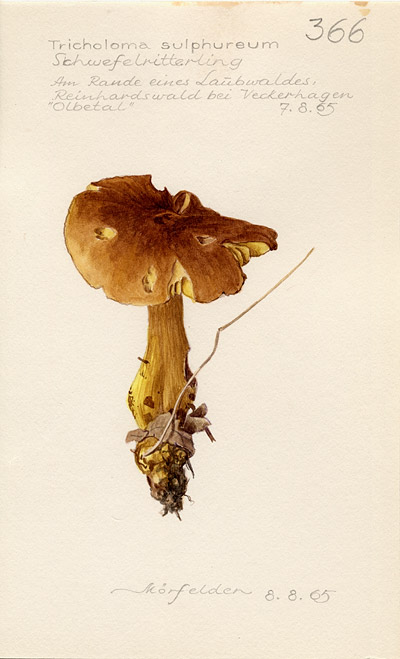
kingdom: Fungi
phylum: Basidiomycota
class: Agaricomycetes
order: Agaricales
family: Tricholomataceae
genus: Tricholoma
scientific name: Tricholoma sulphureum
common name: Stinky knight
